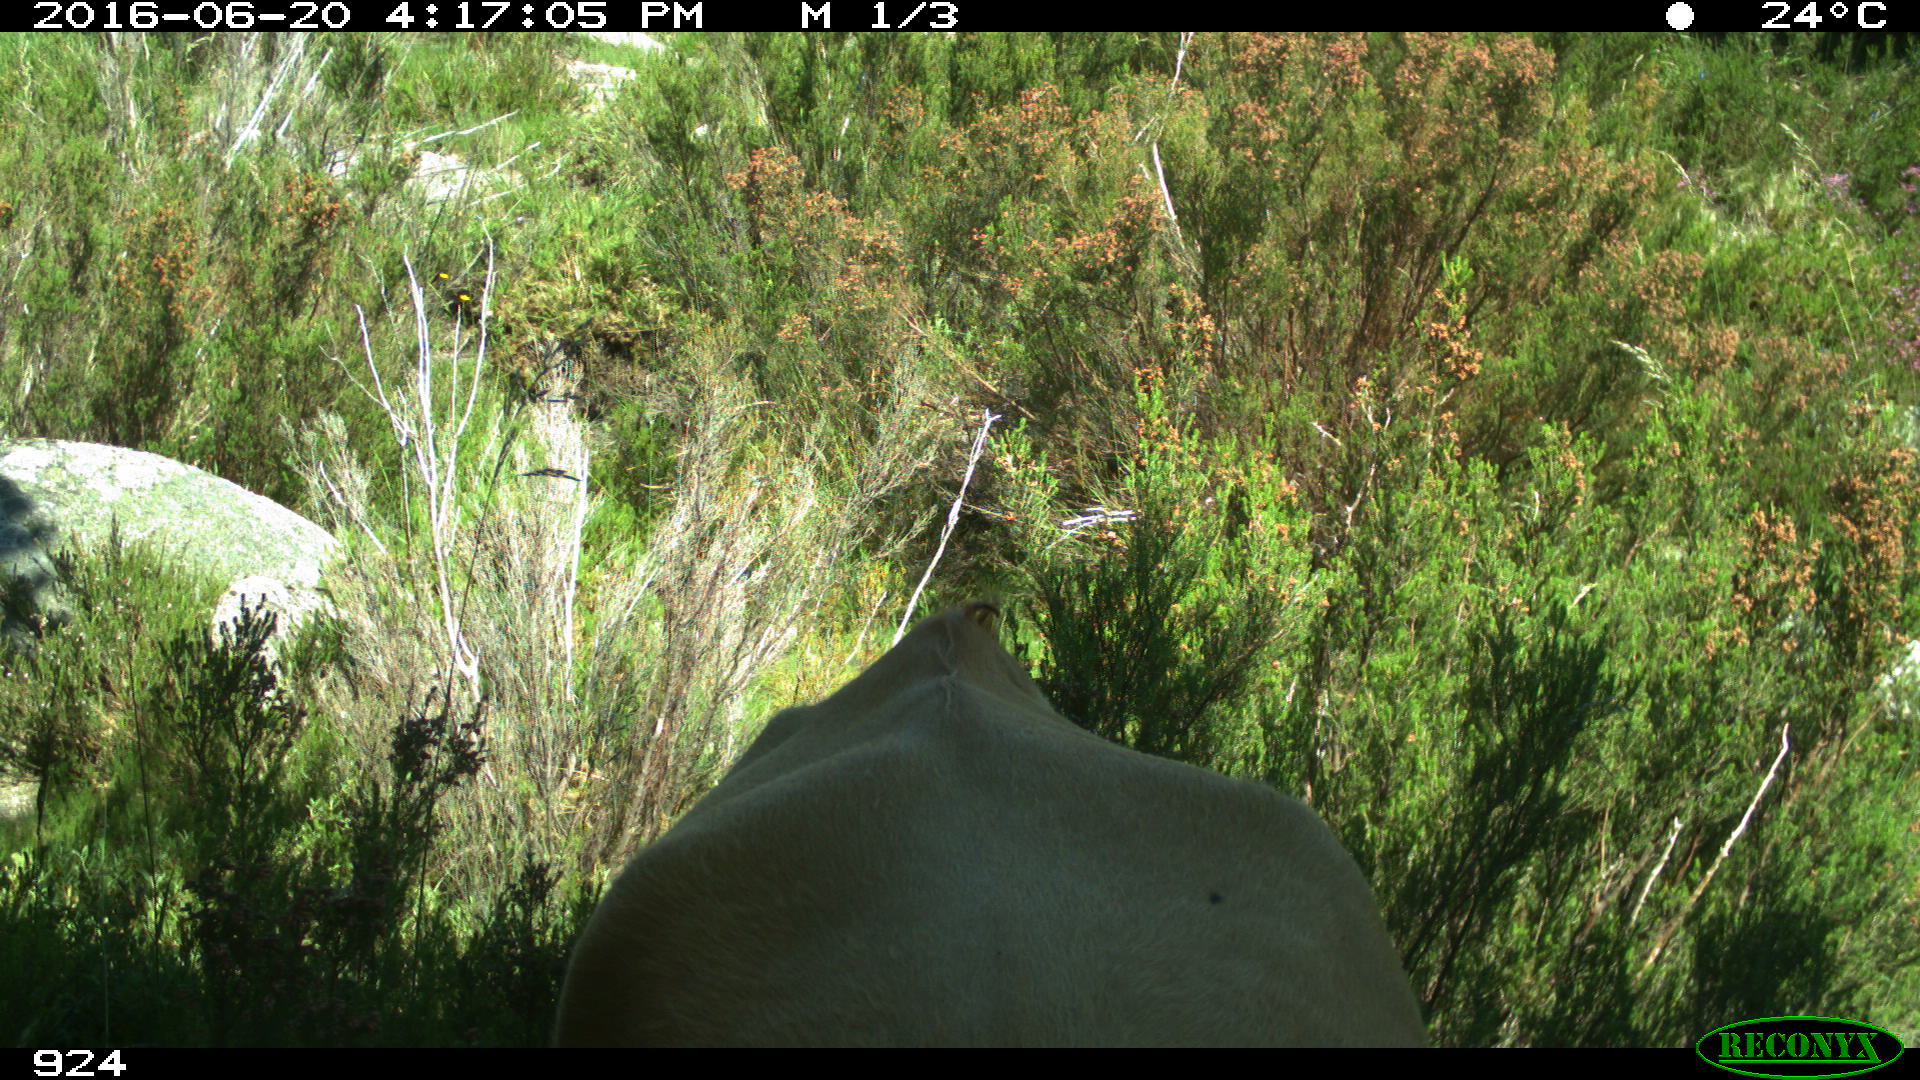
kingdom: Animalia
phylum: Chordata
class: Mammalia
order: Artiodactyla
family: Bovidae
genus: Bos
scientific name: Bos taurus
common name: Domesticated cattle
